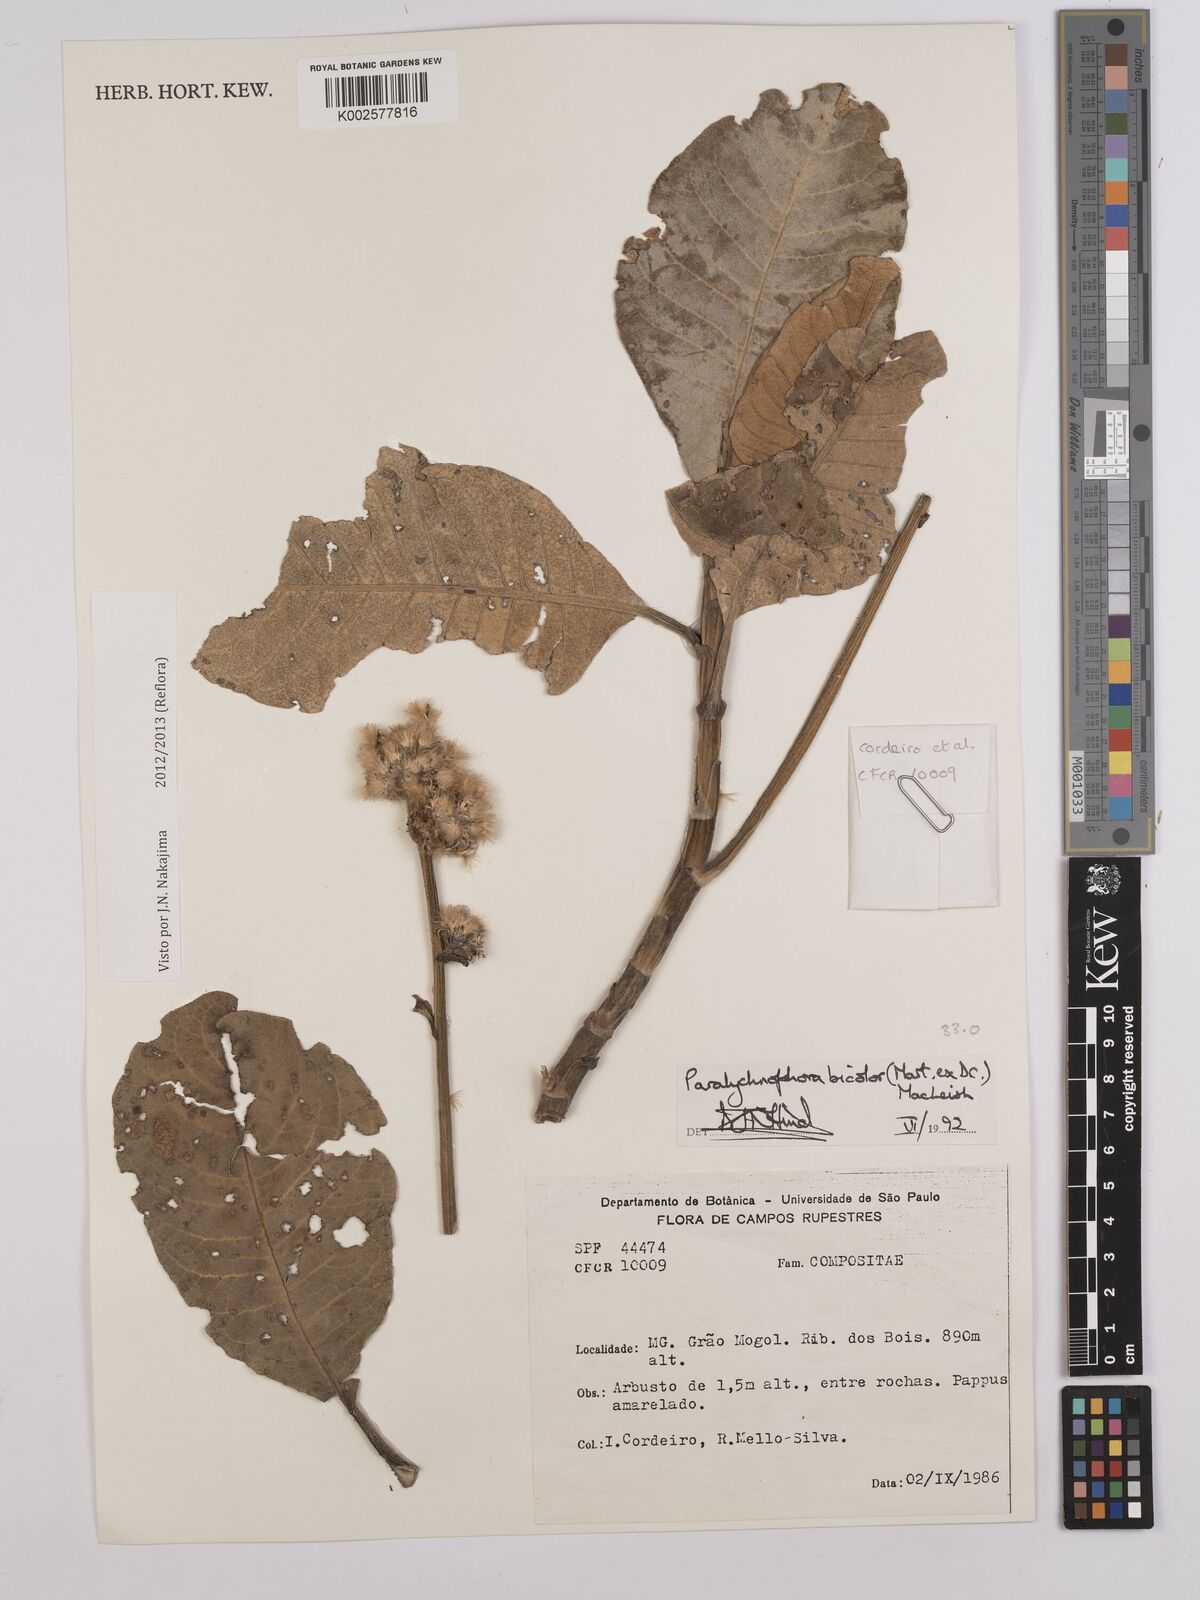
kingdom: Plantae
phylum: Tracheophyta
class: Magnoliopsida
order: Asterales
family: Asteraceae
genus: Paralychnophora
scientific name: Paralychnophora bicolor
